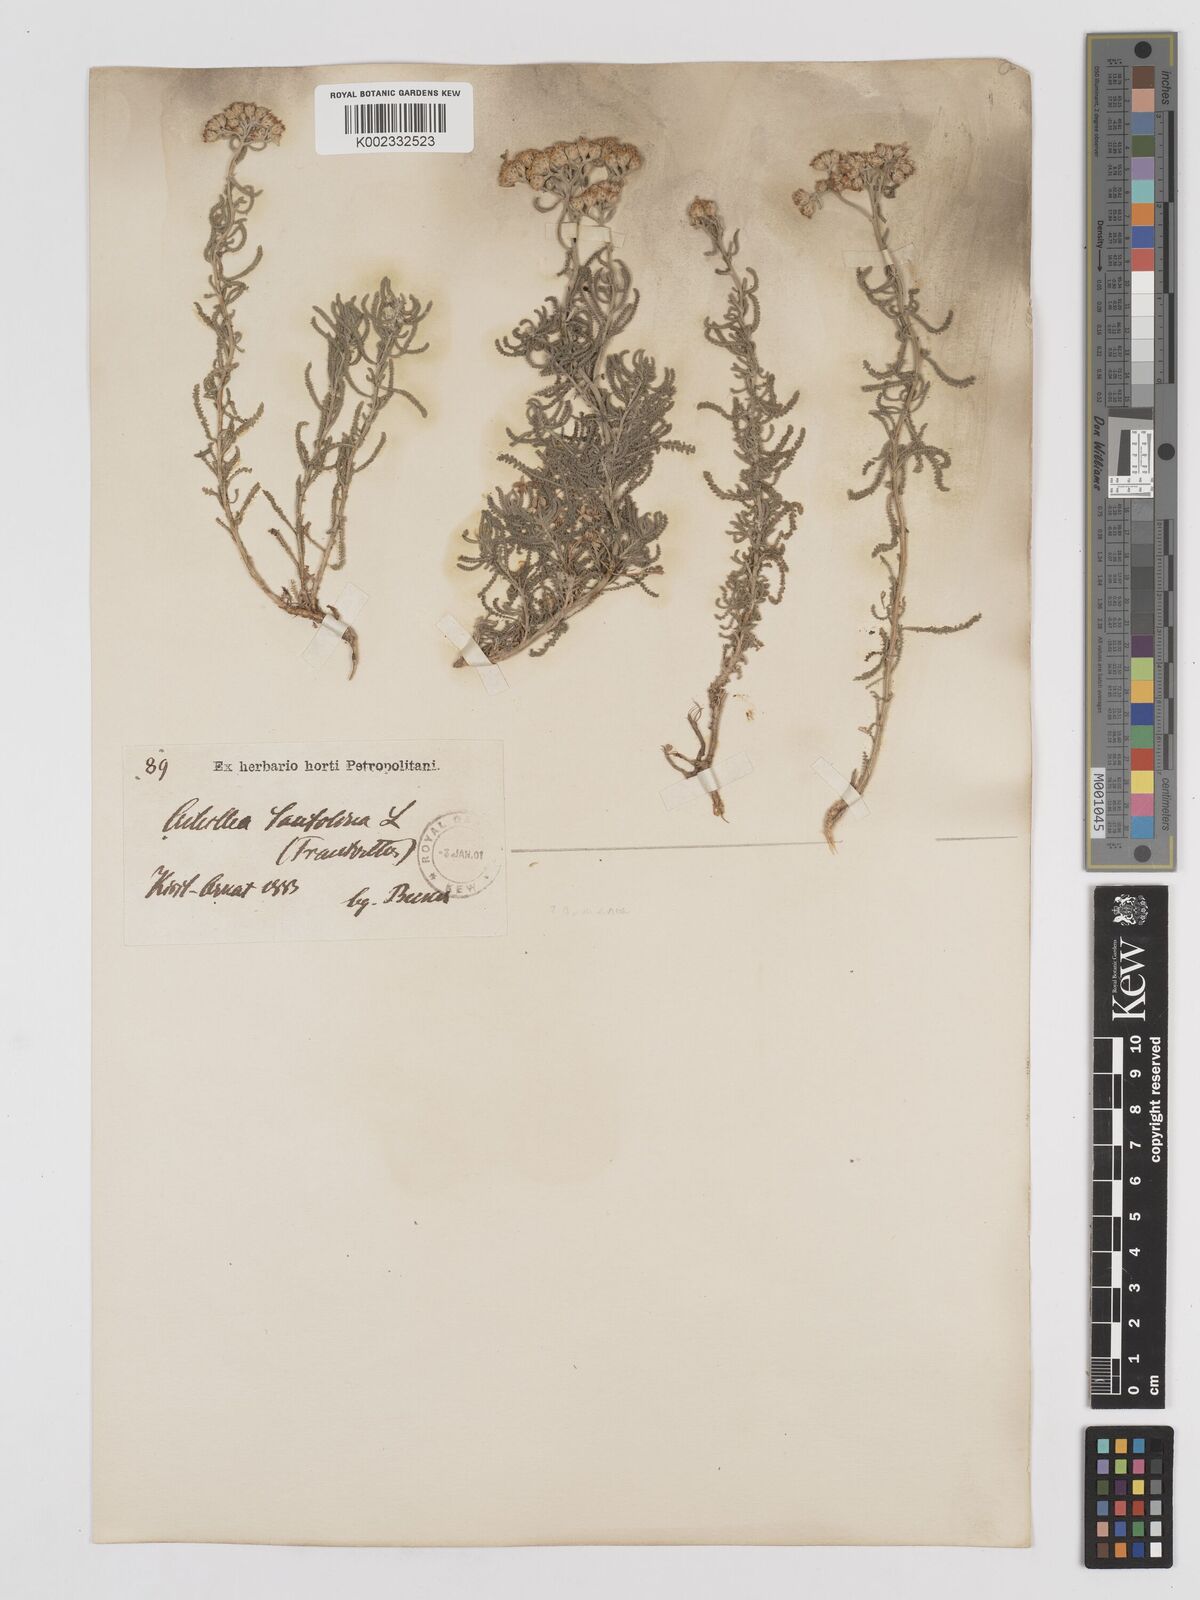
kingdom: Plantae
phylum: Tracheophyta
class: Magnoliopsida
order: Asterales
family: Asteraceae
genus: Achillea
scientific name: Achillea tenuifolia
